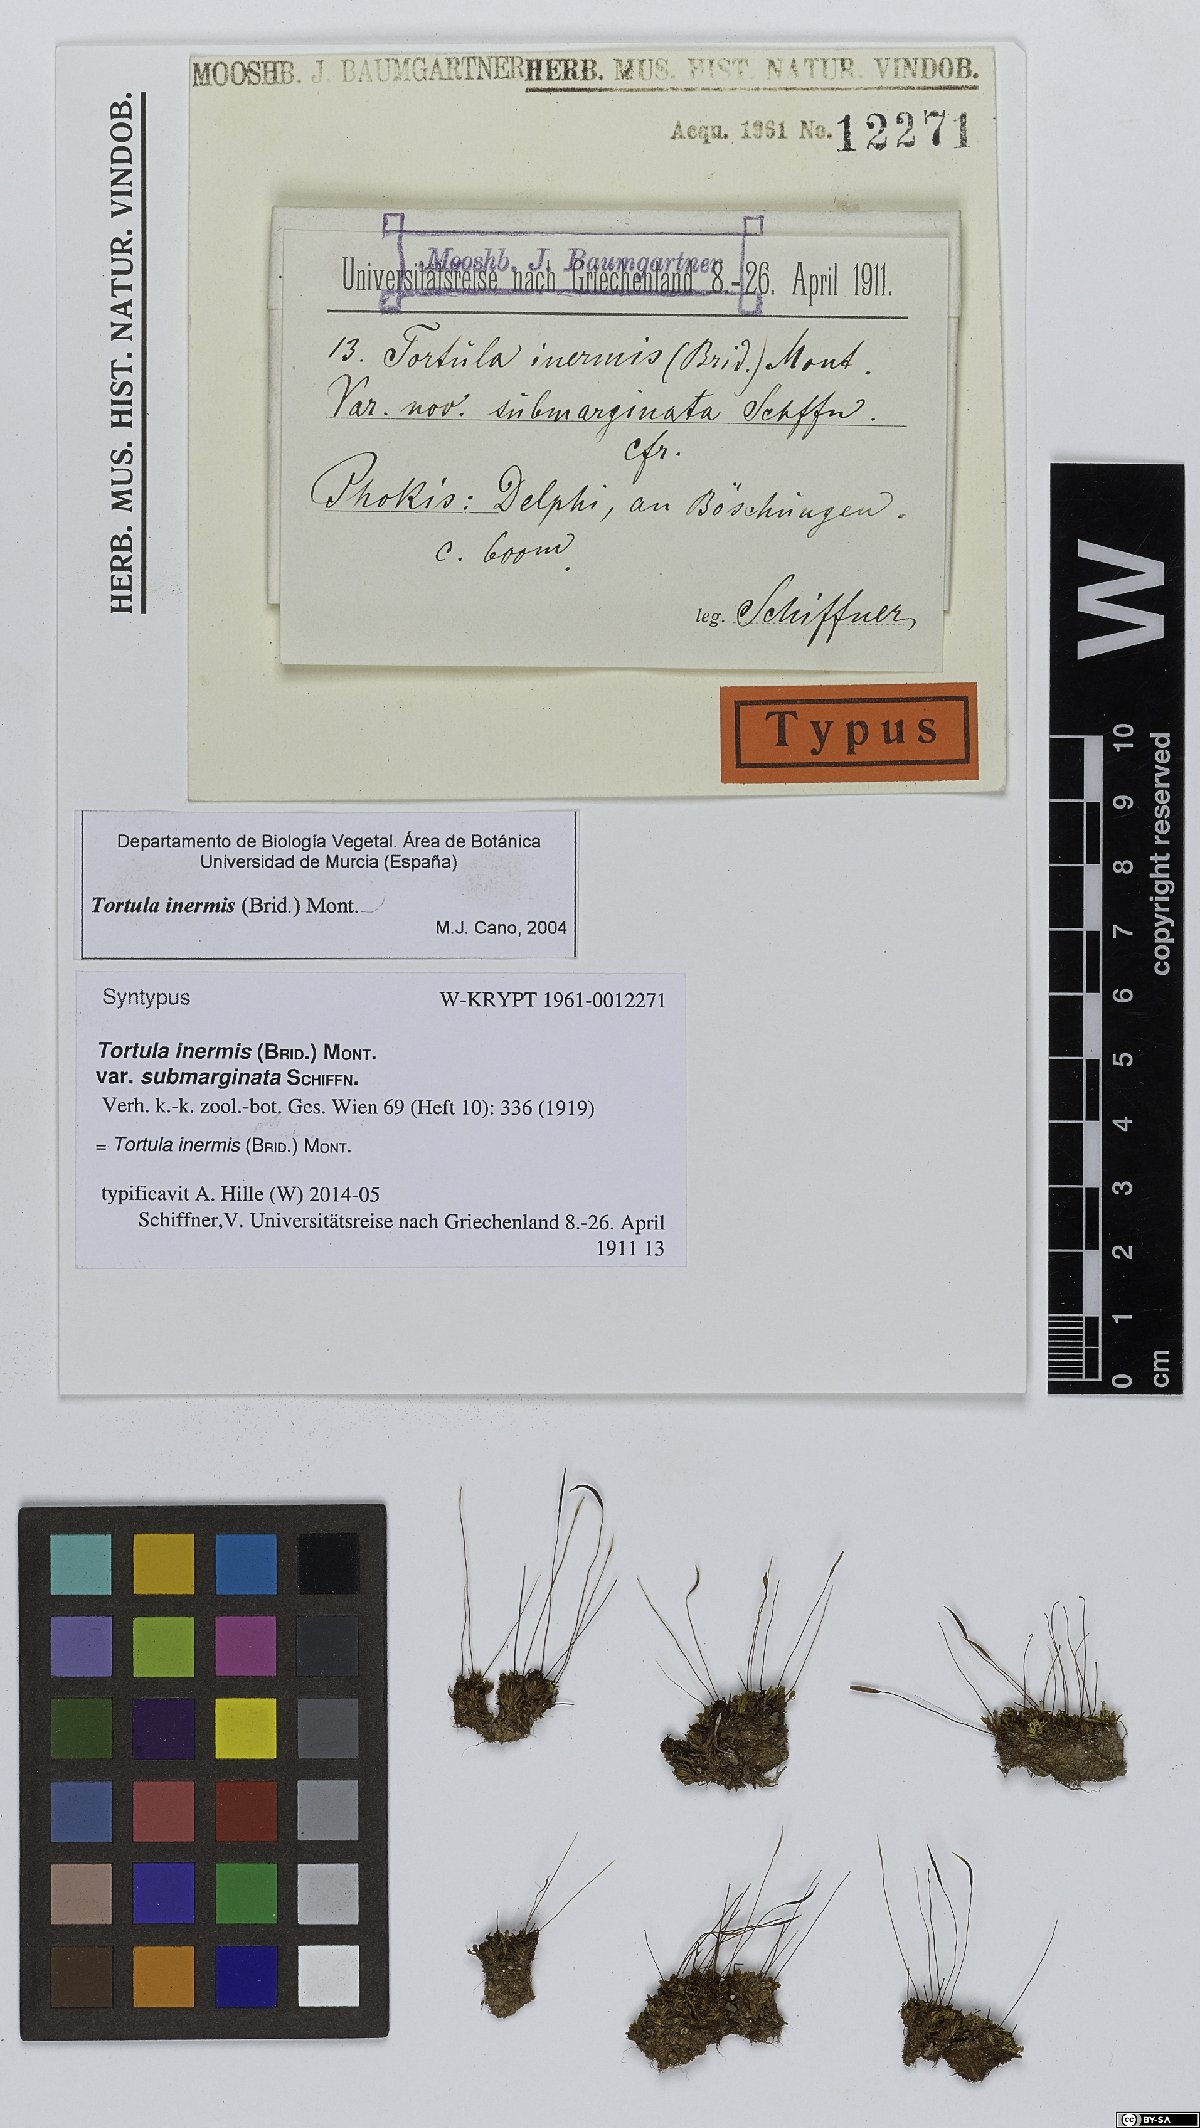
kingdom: Plantae
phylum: Bryophyta
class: Bryopsida
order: Pottiales
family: Pottiaceae
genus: Tortula
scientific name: Tortula inermis
